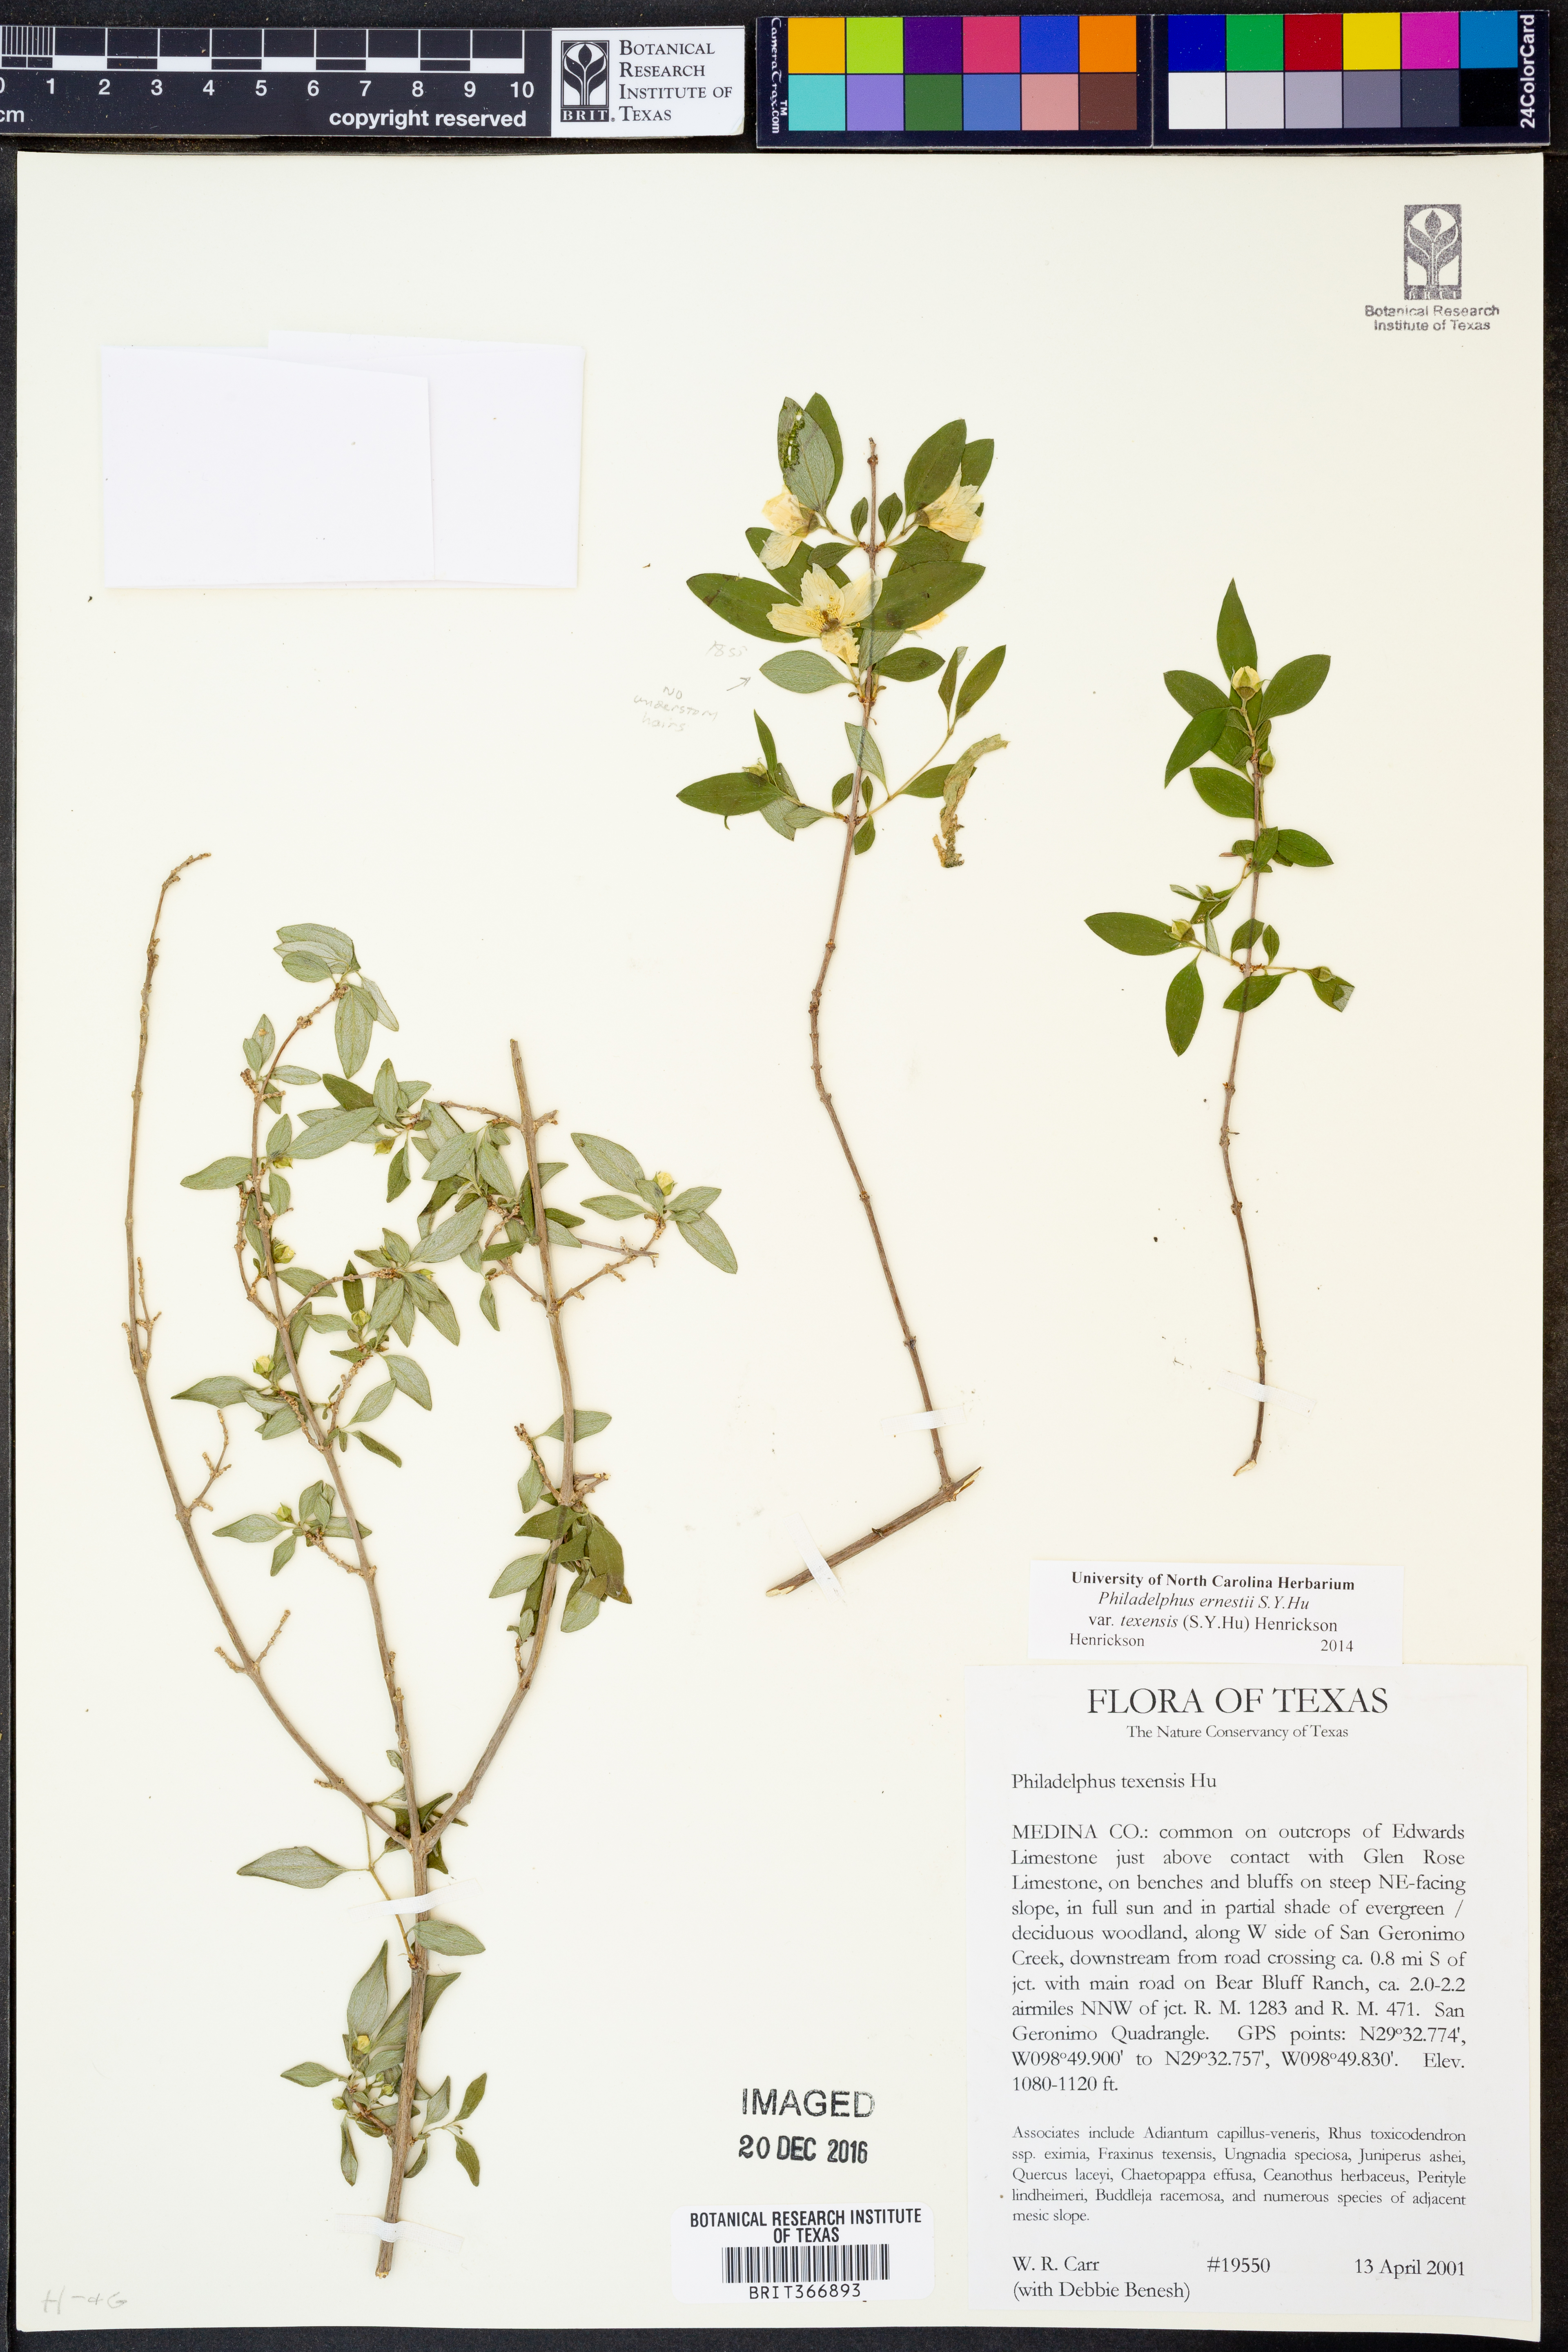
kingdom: Plantae
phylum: Tracheophyta
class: Magnoliopsida
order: Cornales
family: Hydrangeaceae
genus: Philadelphus
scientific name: Philadelphus texensis
